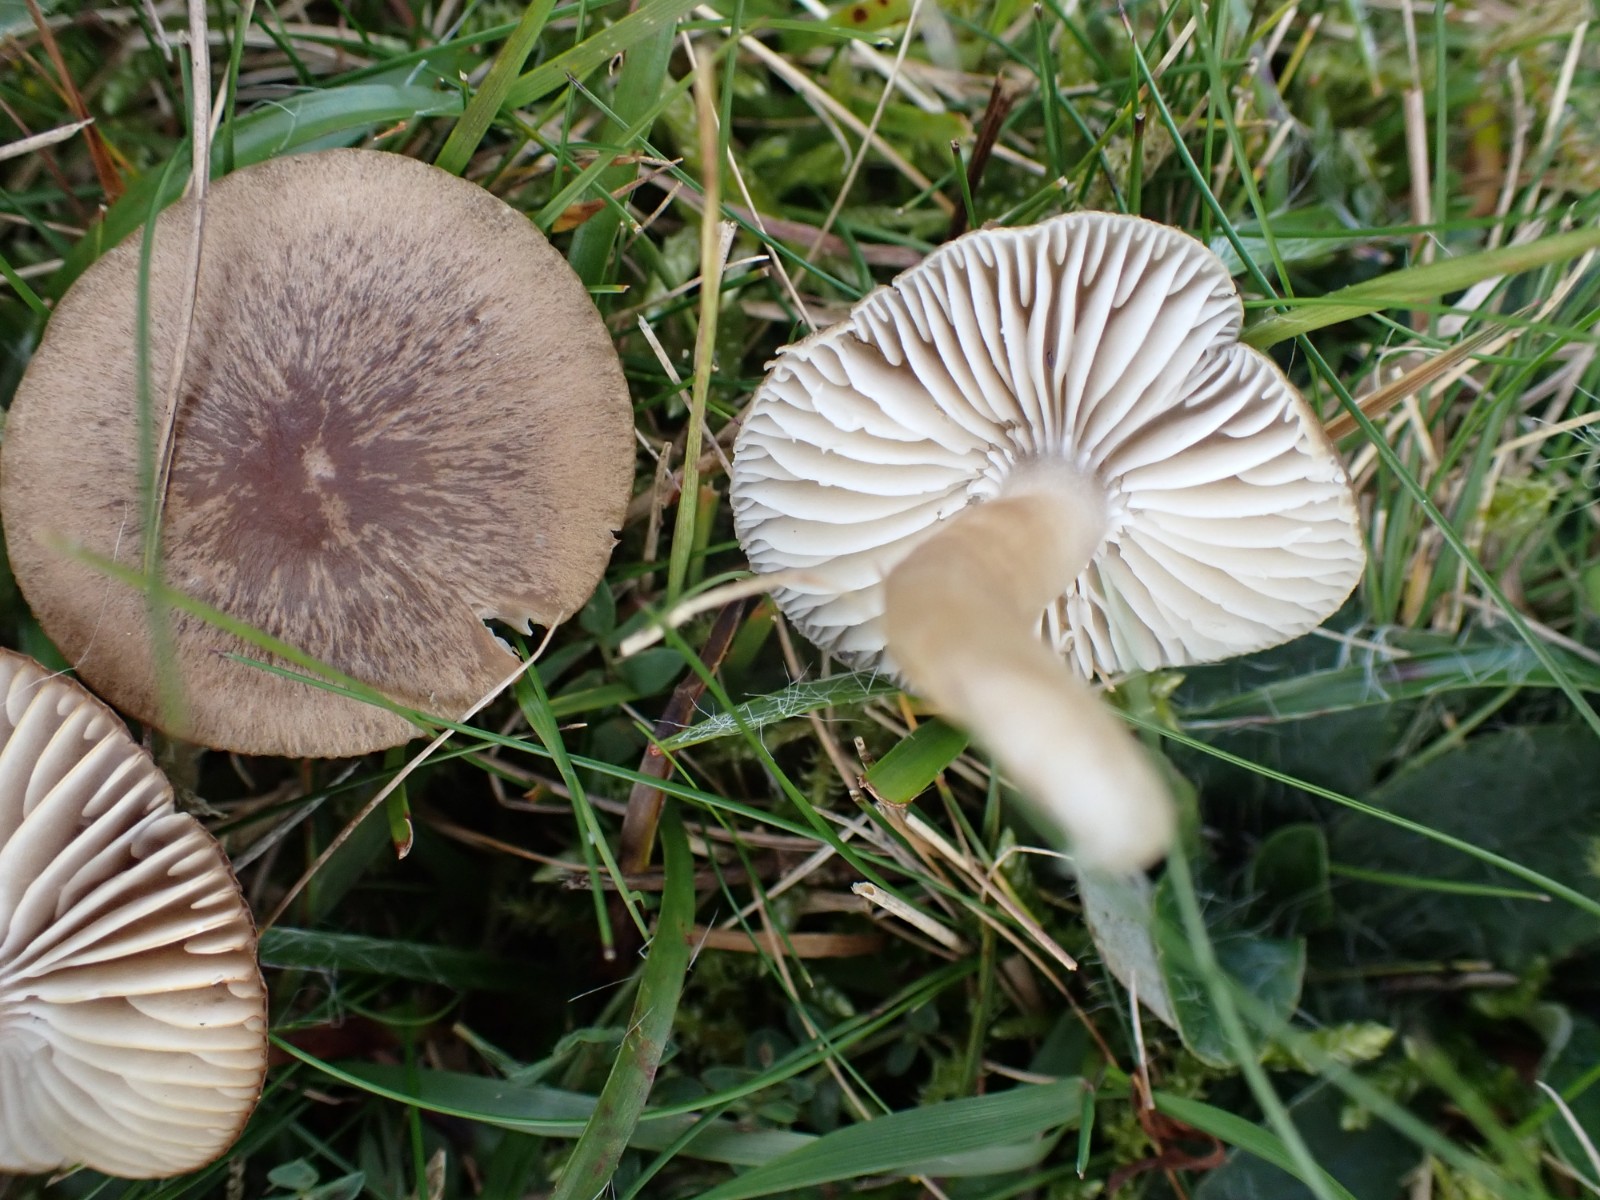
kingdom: Fungi
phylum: Basidiomycota
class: Agaricomycetes
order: Agaricales
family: Hygrophoraceae
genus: Neohygrocybe
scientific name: Neohygrocybe nitrata
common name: stinkende vokshat
